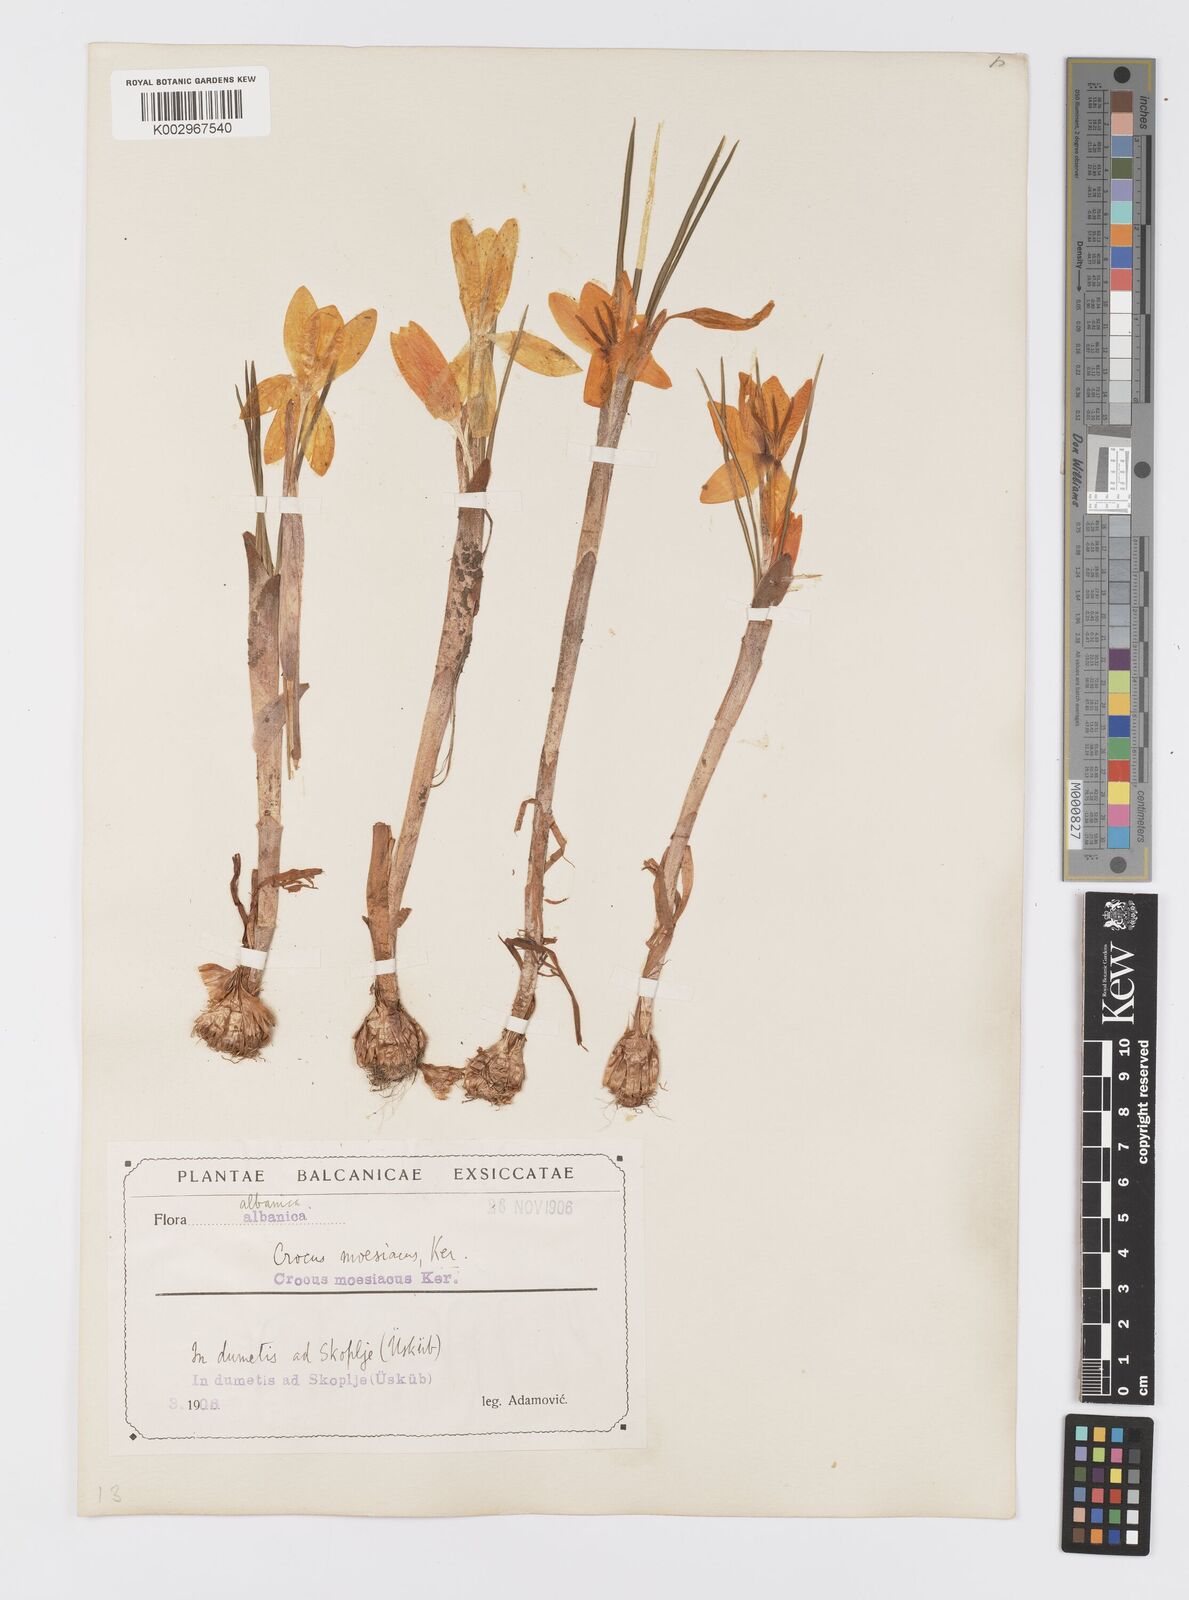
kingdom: Plantae
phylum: Tracheophyta
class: Liliopsida
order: Asparagales
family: Iridaceae
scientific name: Iridaceae
